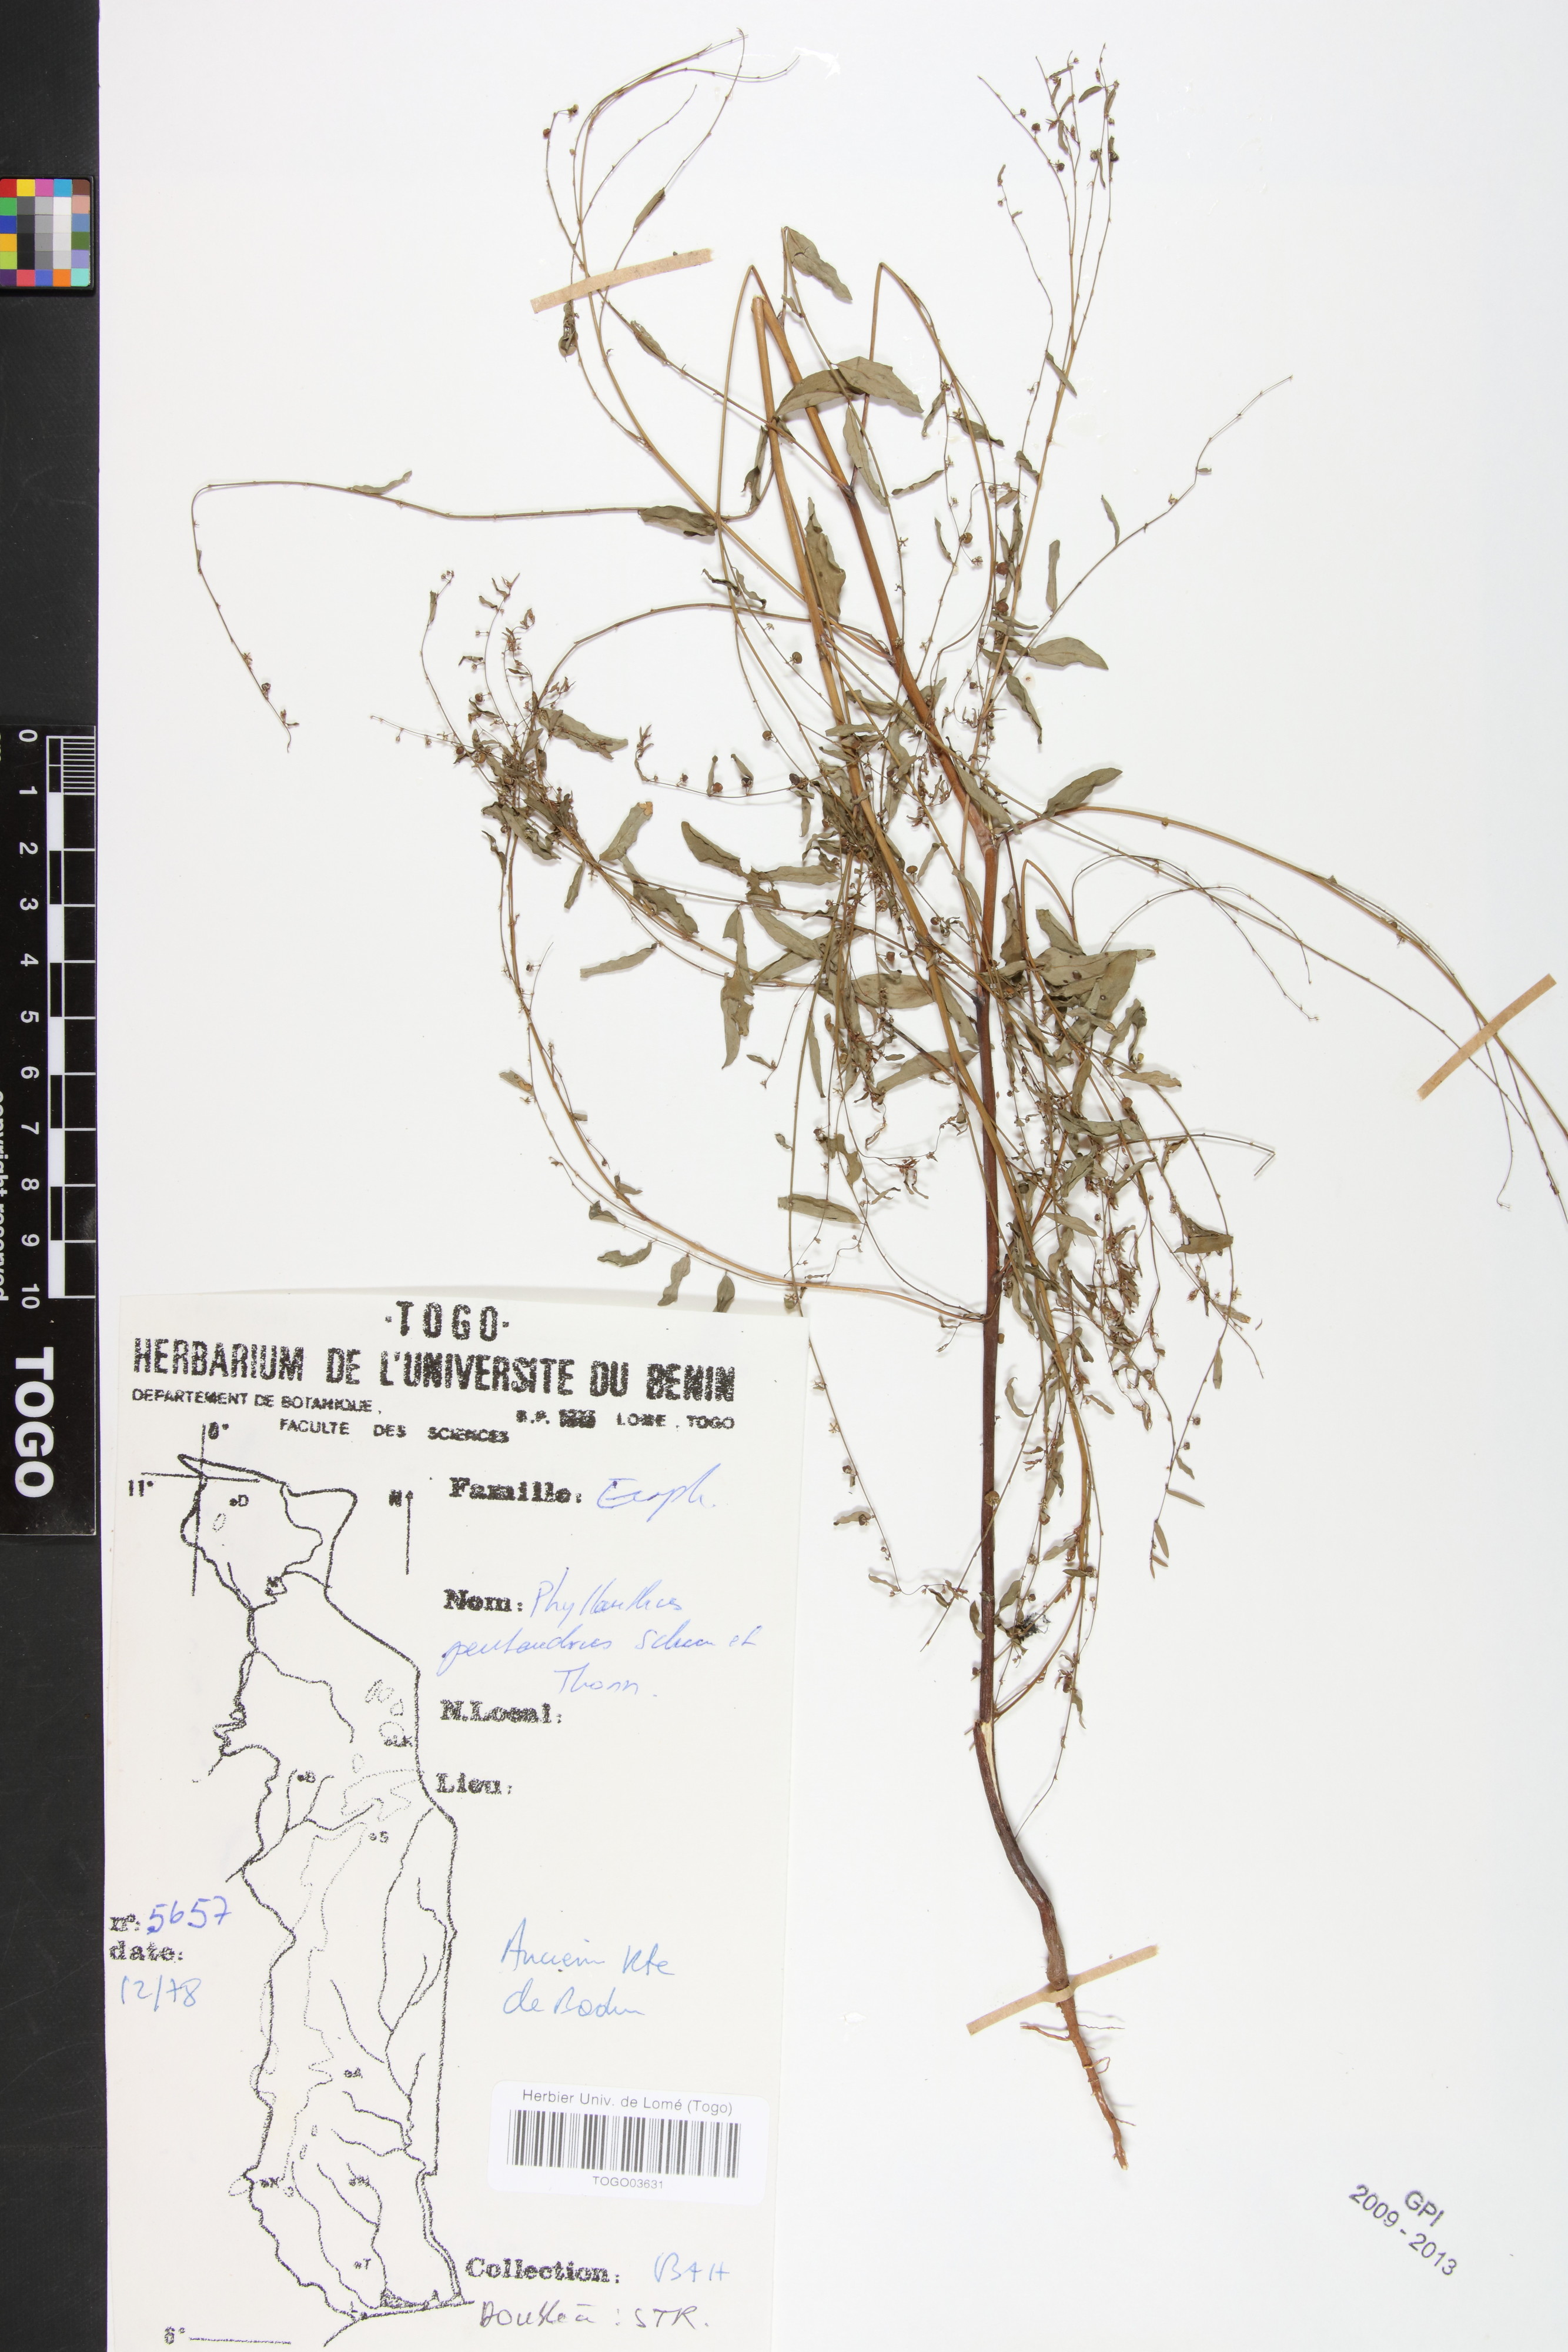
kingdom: Plantae
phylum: Tracheophyta
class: Magnoliopsida
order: Malpighiales
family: Phyllanthaceae
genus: Phyllanthus
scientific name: Phyllanthus pentandrus
